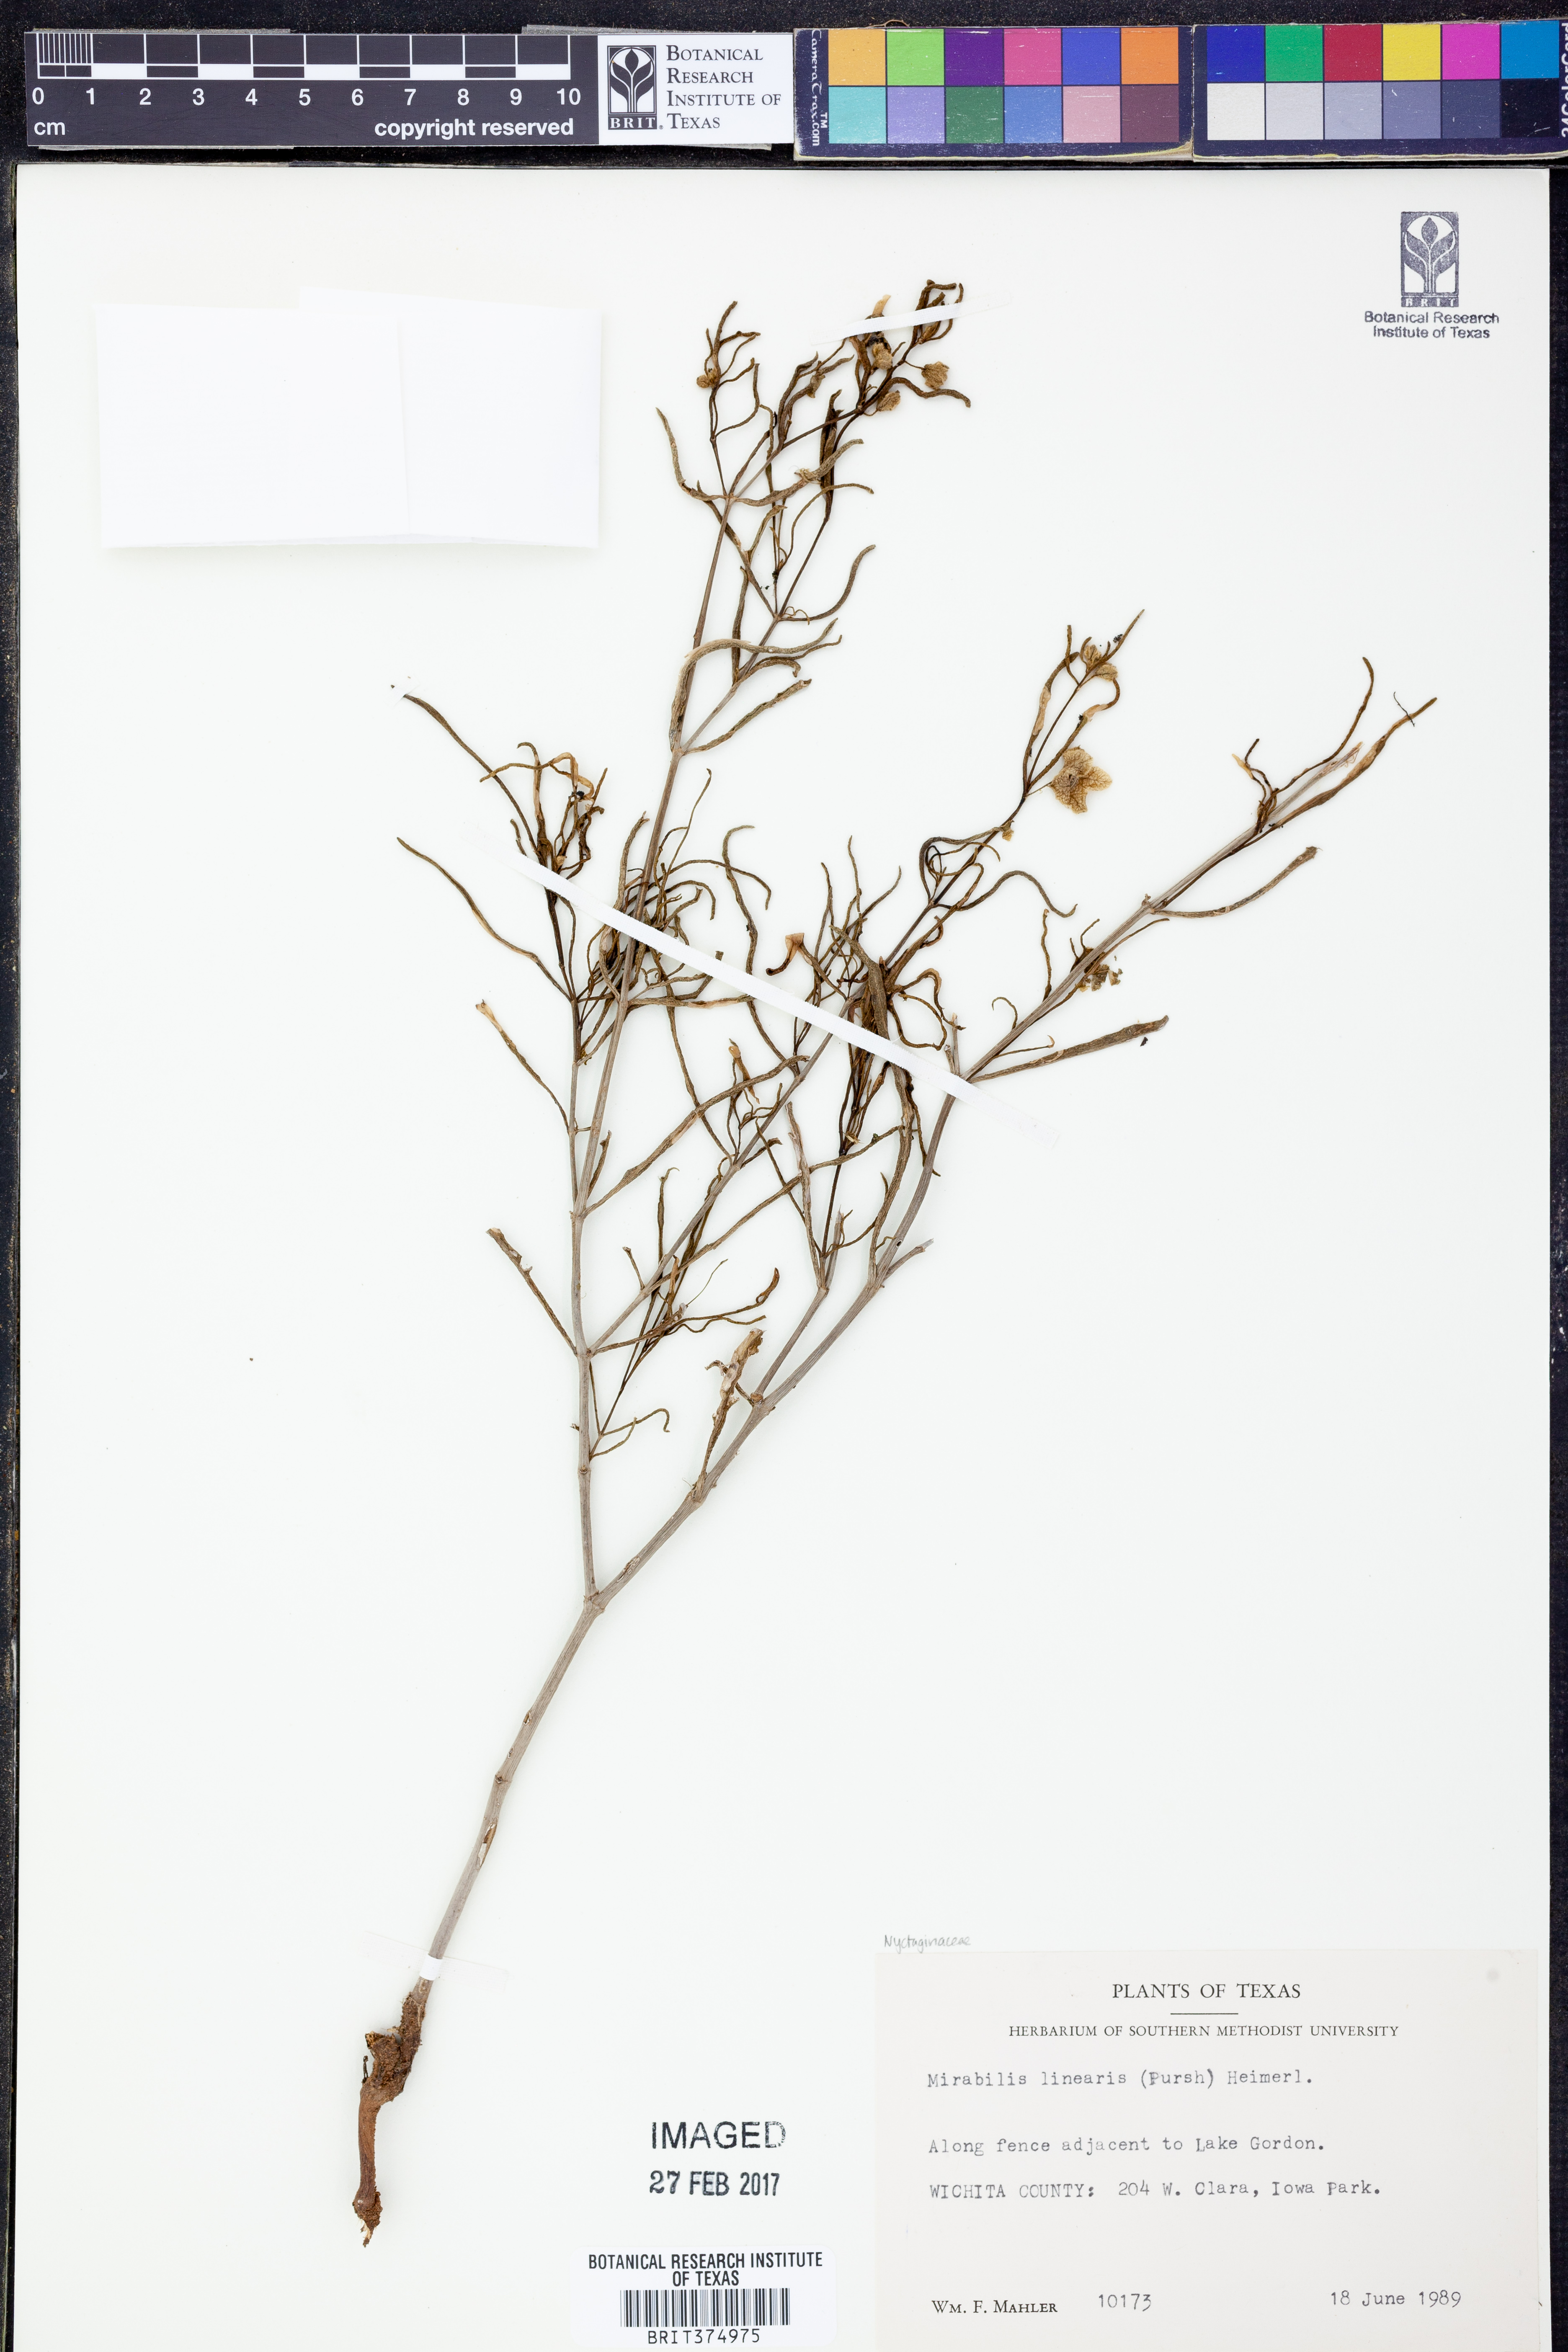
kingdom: Plantae
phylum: Tracheophyta
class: Magnoliopsida
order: Caryophyllales
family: Nyctaginaceae
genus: Mirabilis
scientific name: Mirabilis linearis
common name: Linear-leaved four-o'clock
